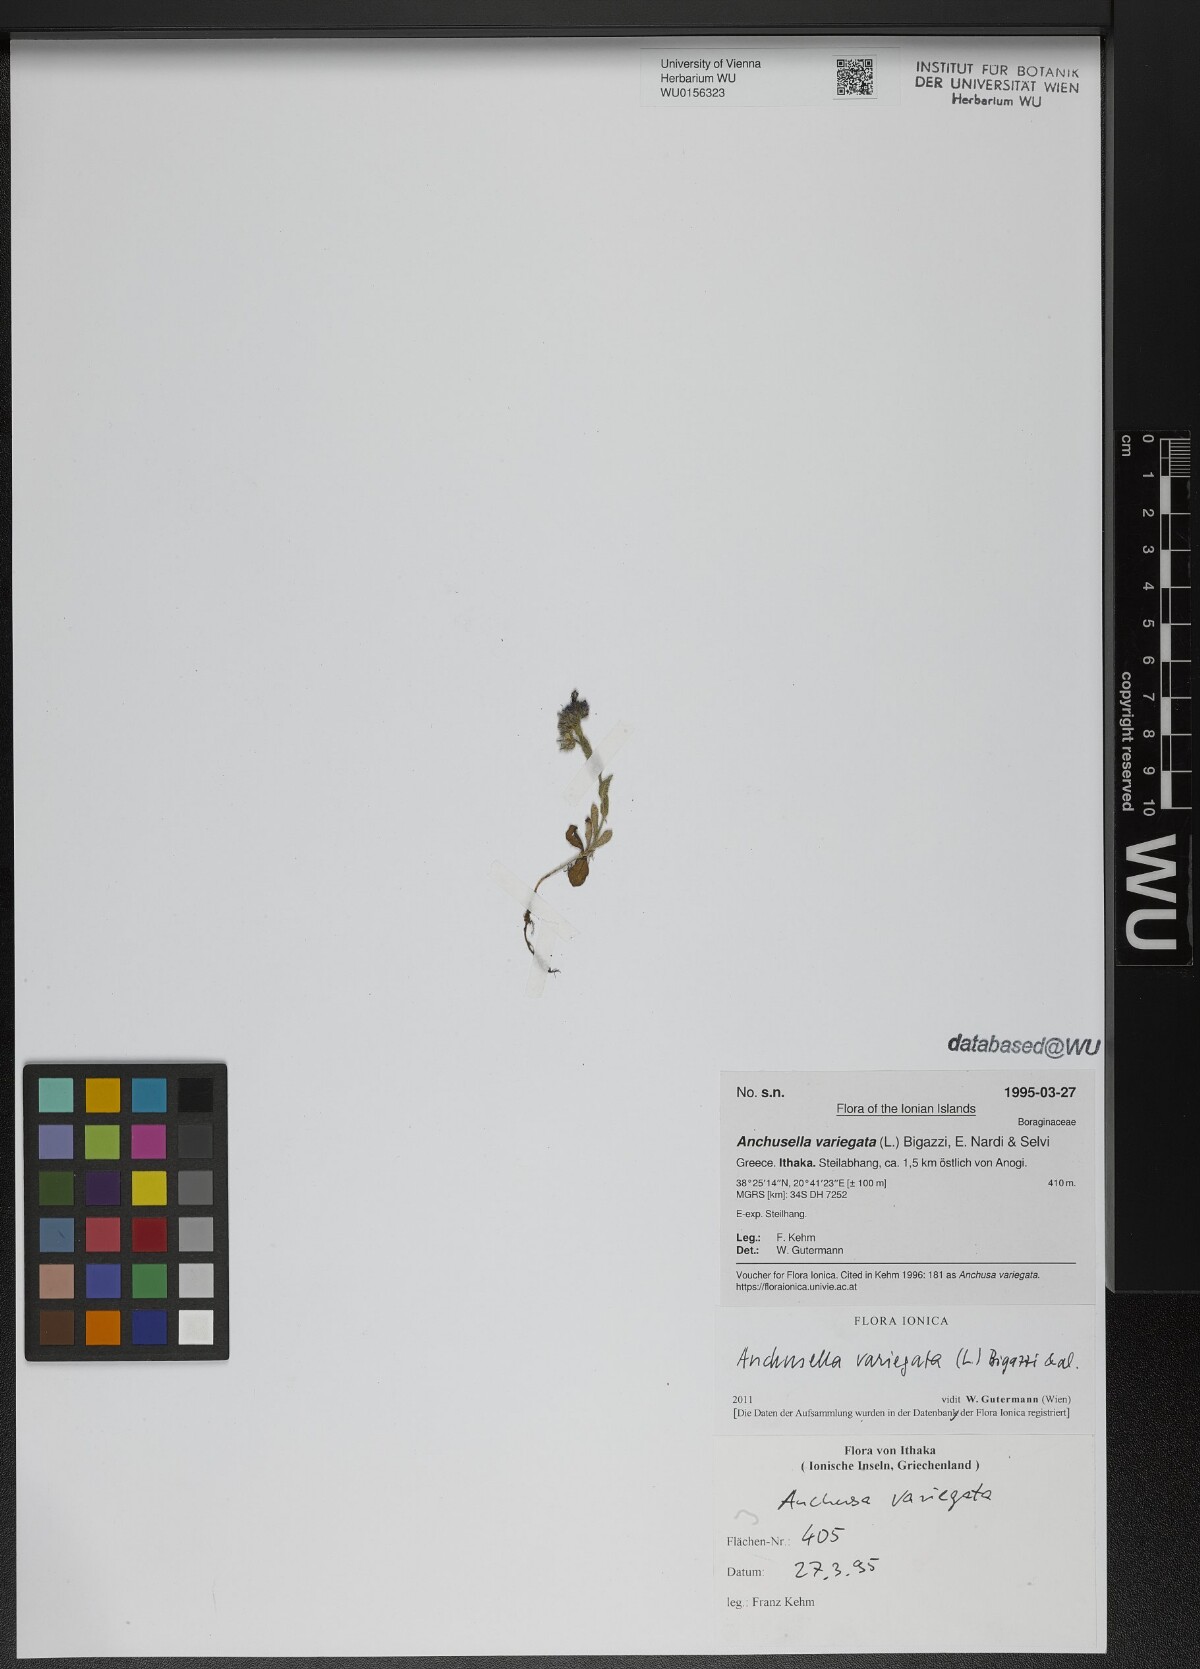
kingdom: Plantae
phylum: Tracheophyta
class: Magnoliopsida
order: Boraginales
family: Boraginaceae
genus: Anchusella
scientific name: Anchusella variegata
